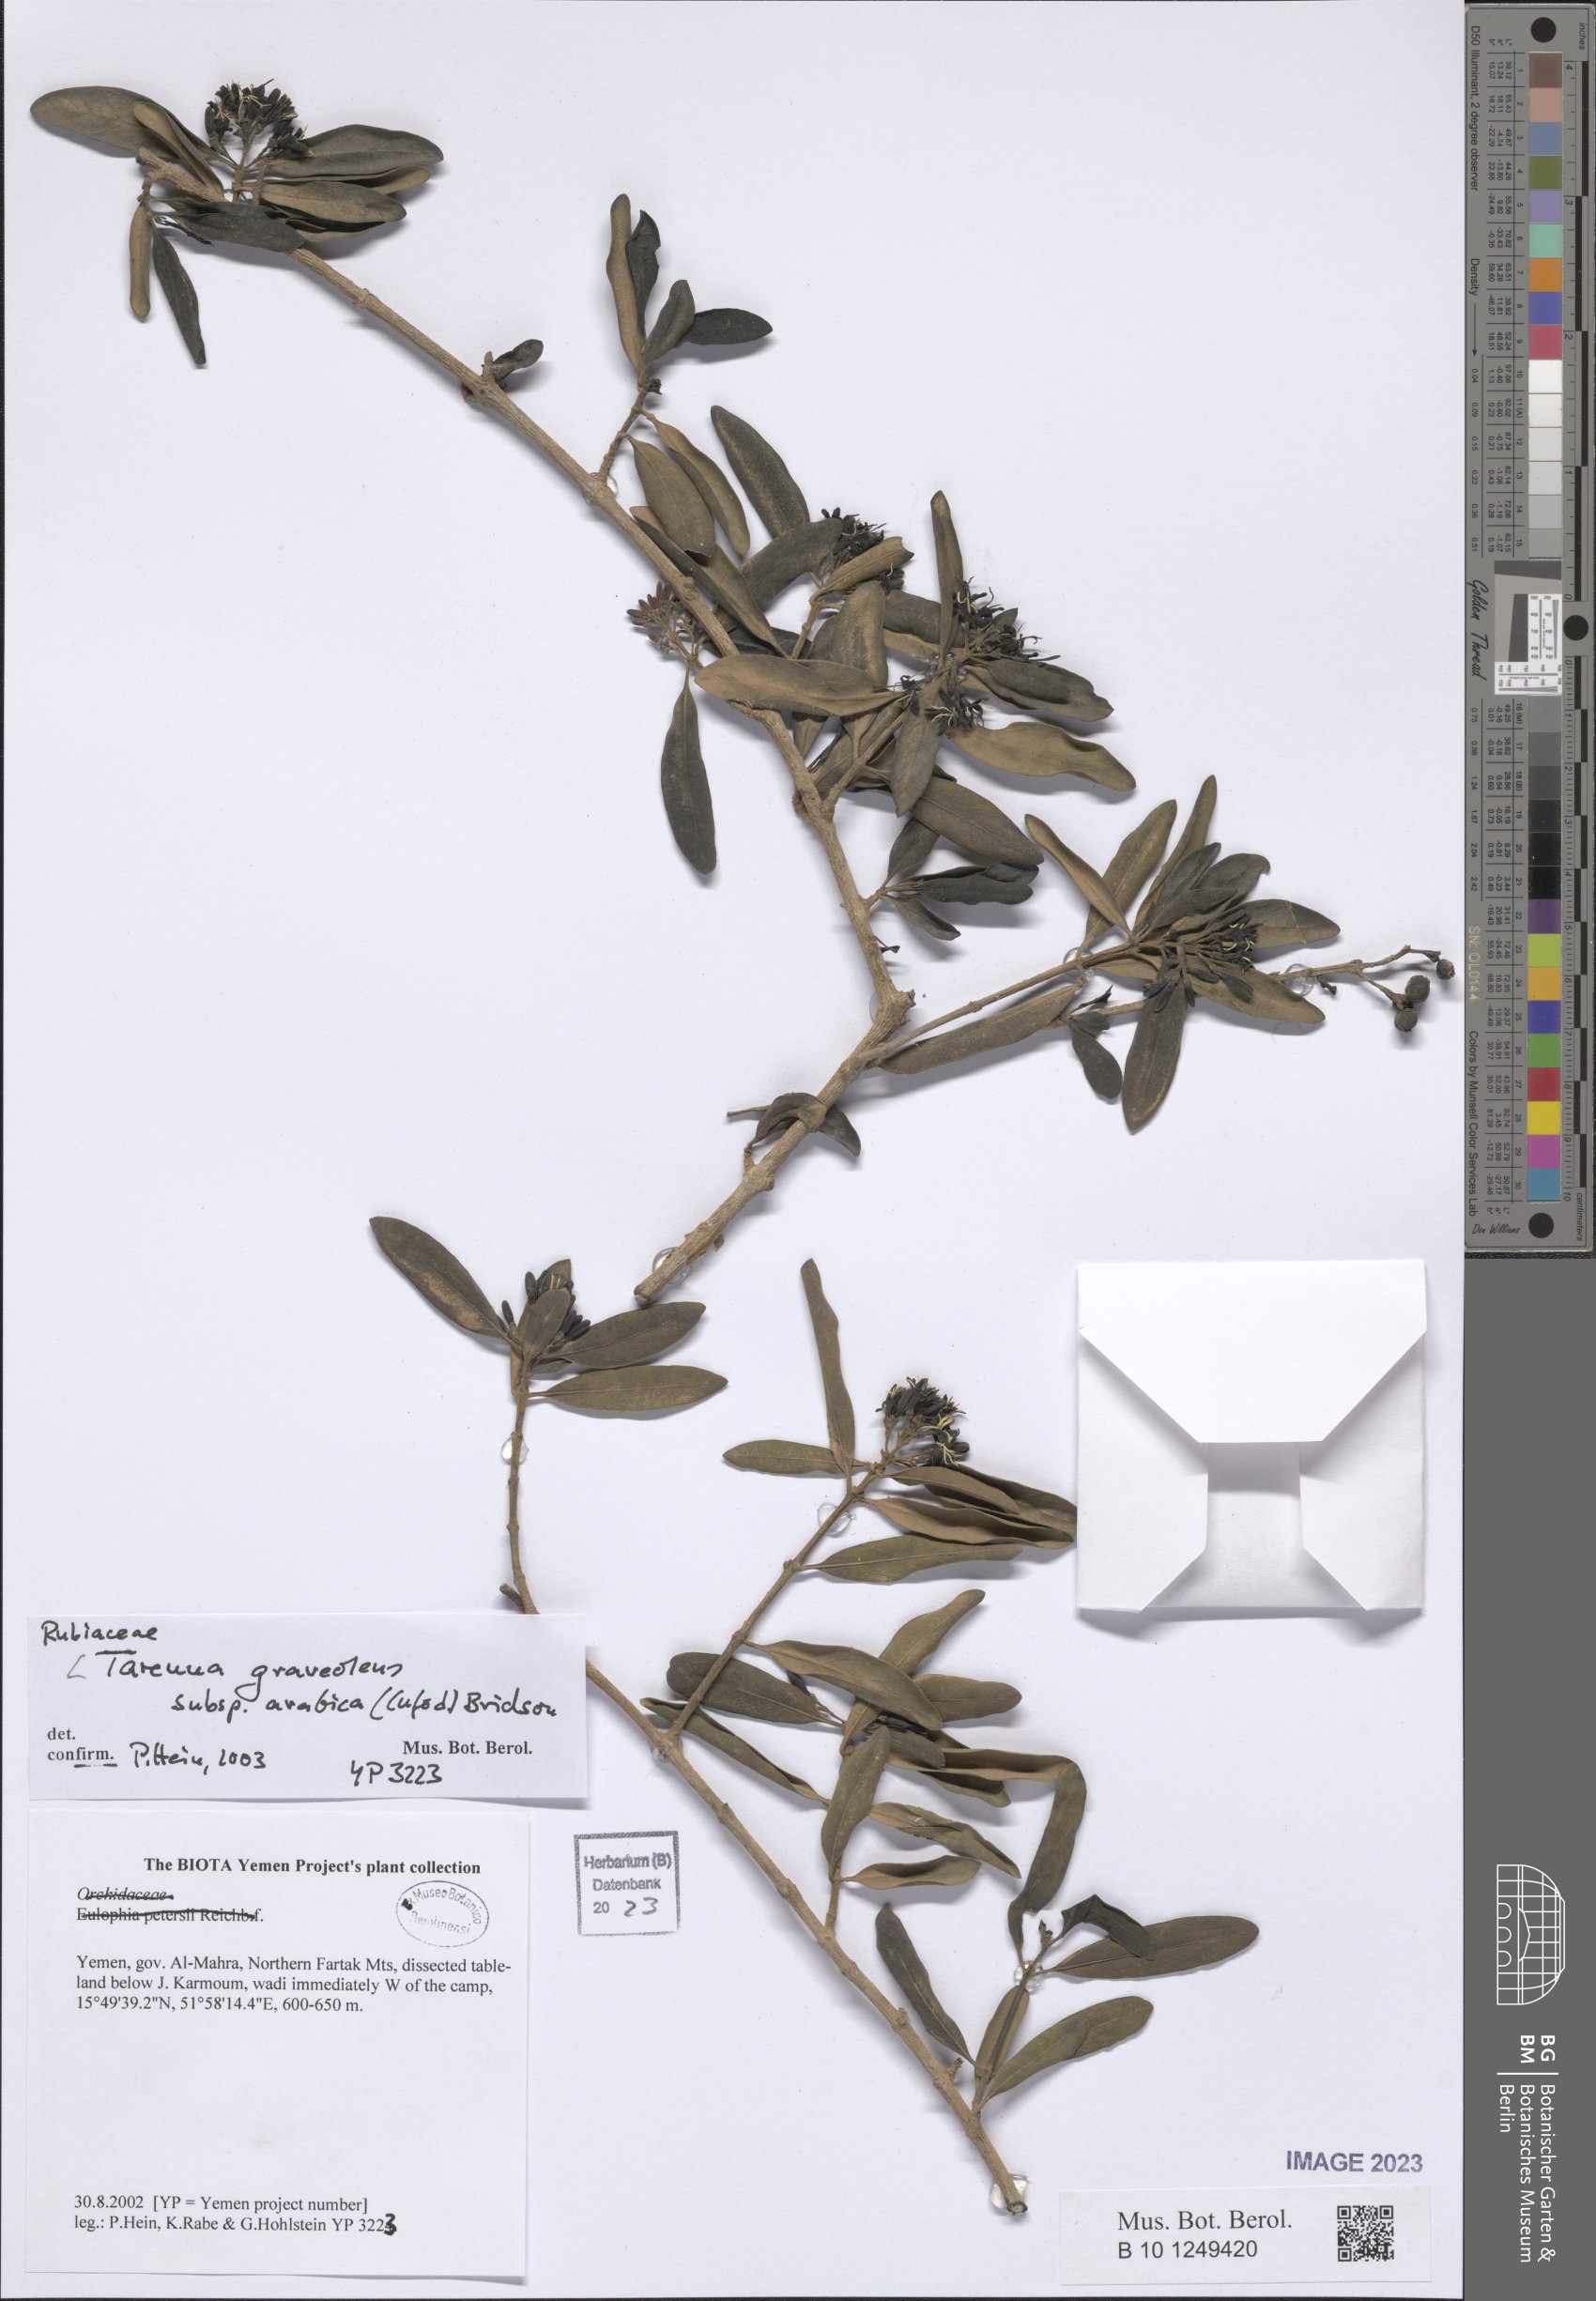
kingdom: Plantae
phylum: Tracheophyta
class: Magnoliopsida
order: Gentianales
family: Rubiaceae
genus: Coptosperma
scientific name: Coptosperma graveolens
